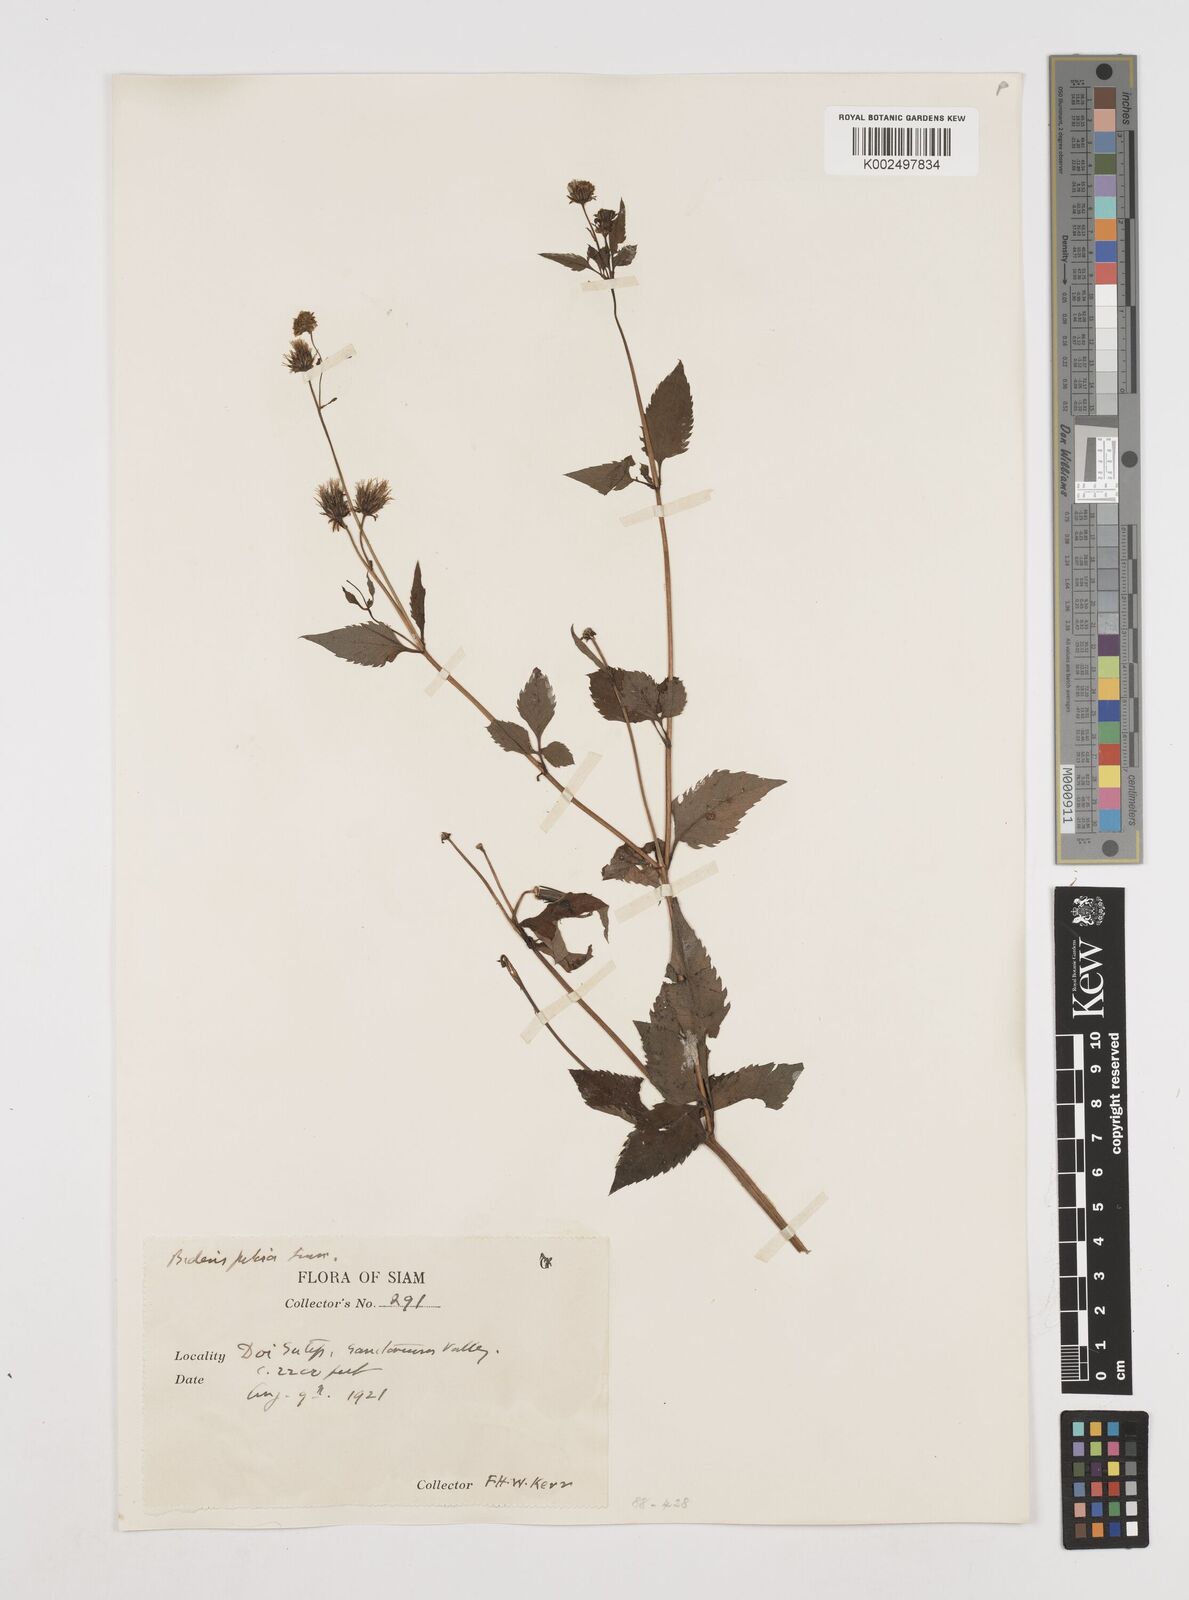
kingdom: Plantae
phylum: Tracheophyta
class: Magnoliopsida
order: Asterales
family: Asteraceae
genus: Bidens
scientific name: Bidens pilosa
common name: Black-jack
